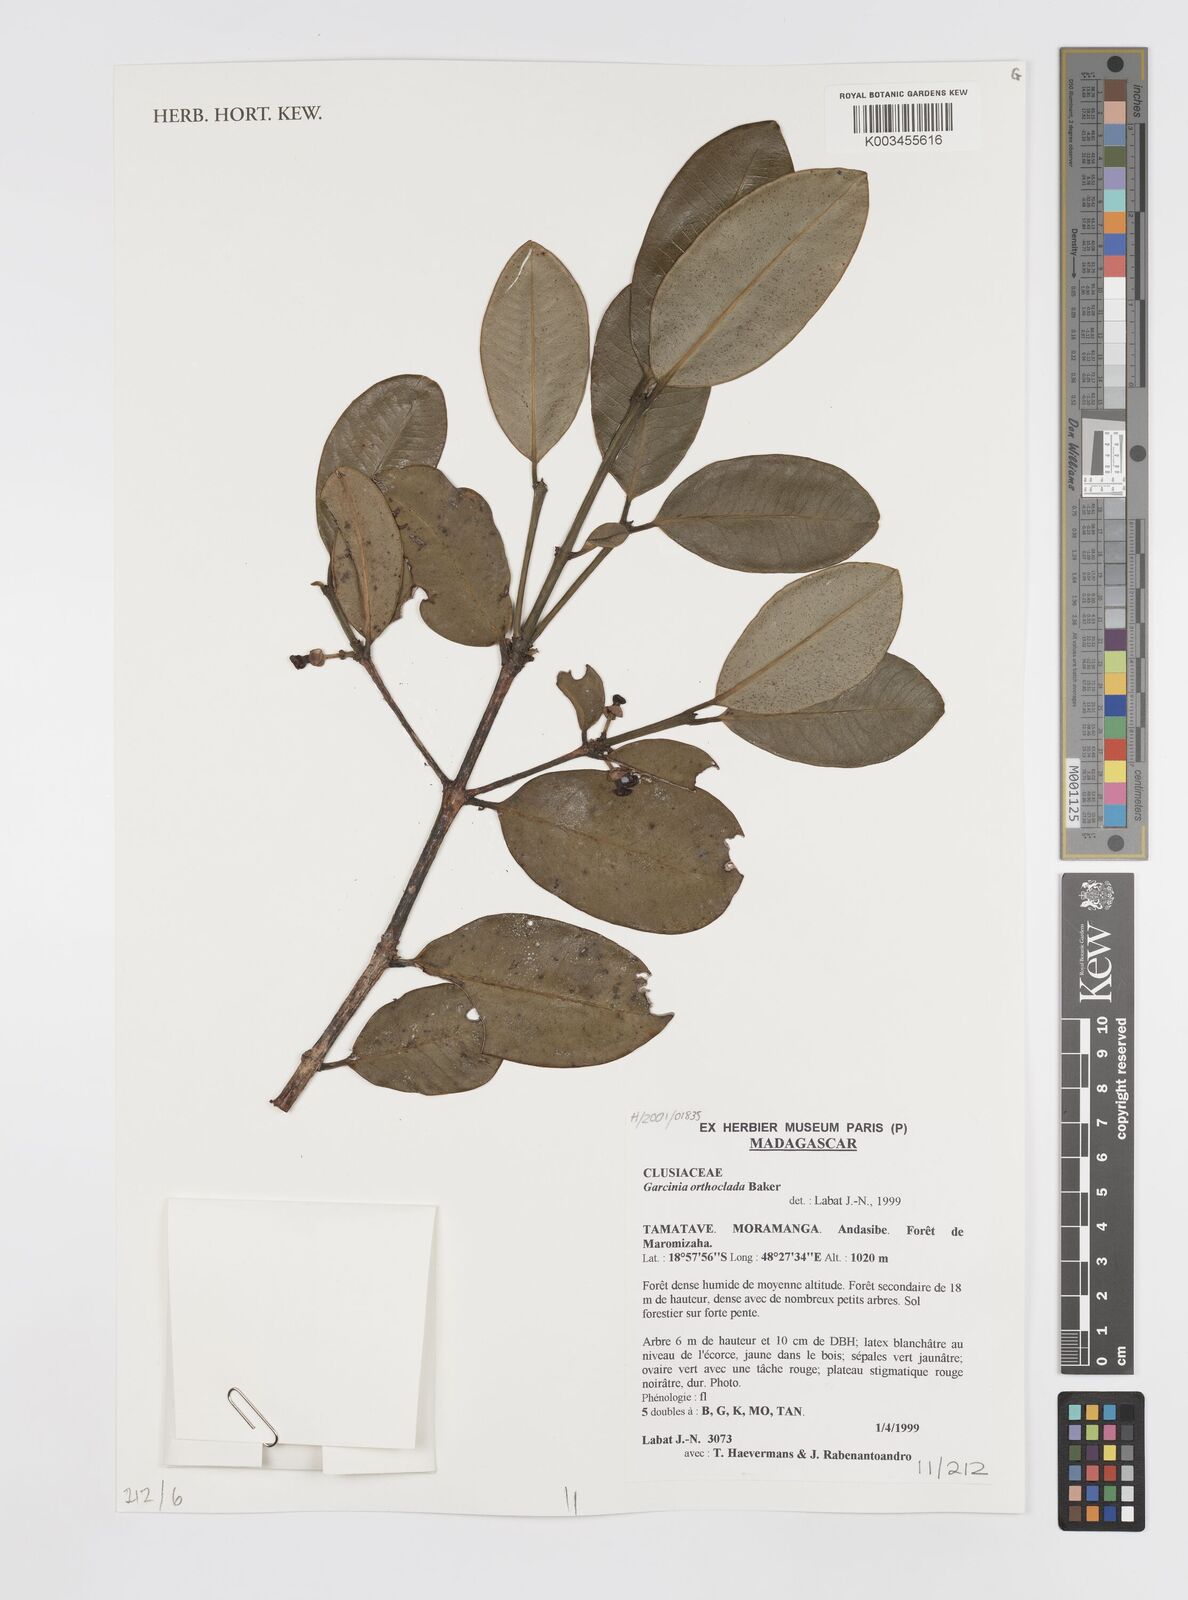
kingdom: Plantae
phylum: Tracheophyta
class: Magnoliopsida
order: Malpighiales
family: Clusiaceae
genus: Garcinia
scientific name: Garcinia orthoclada
